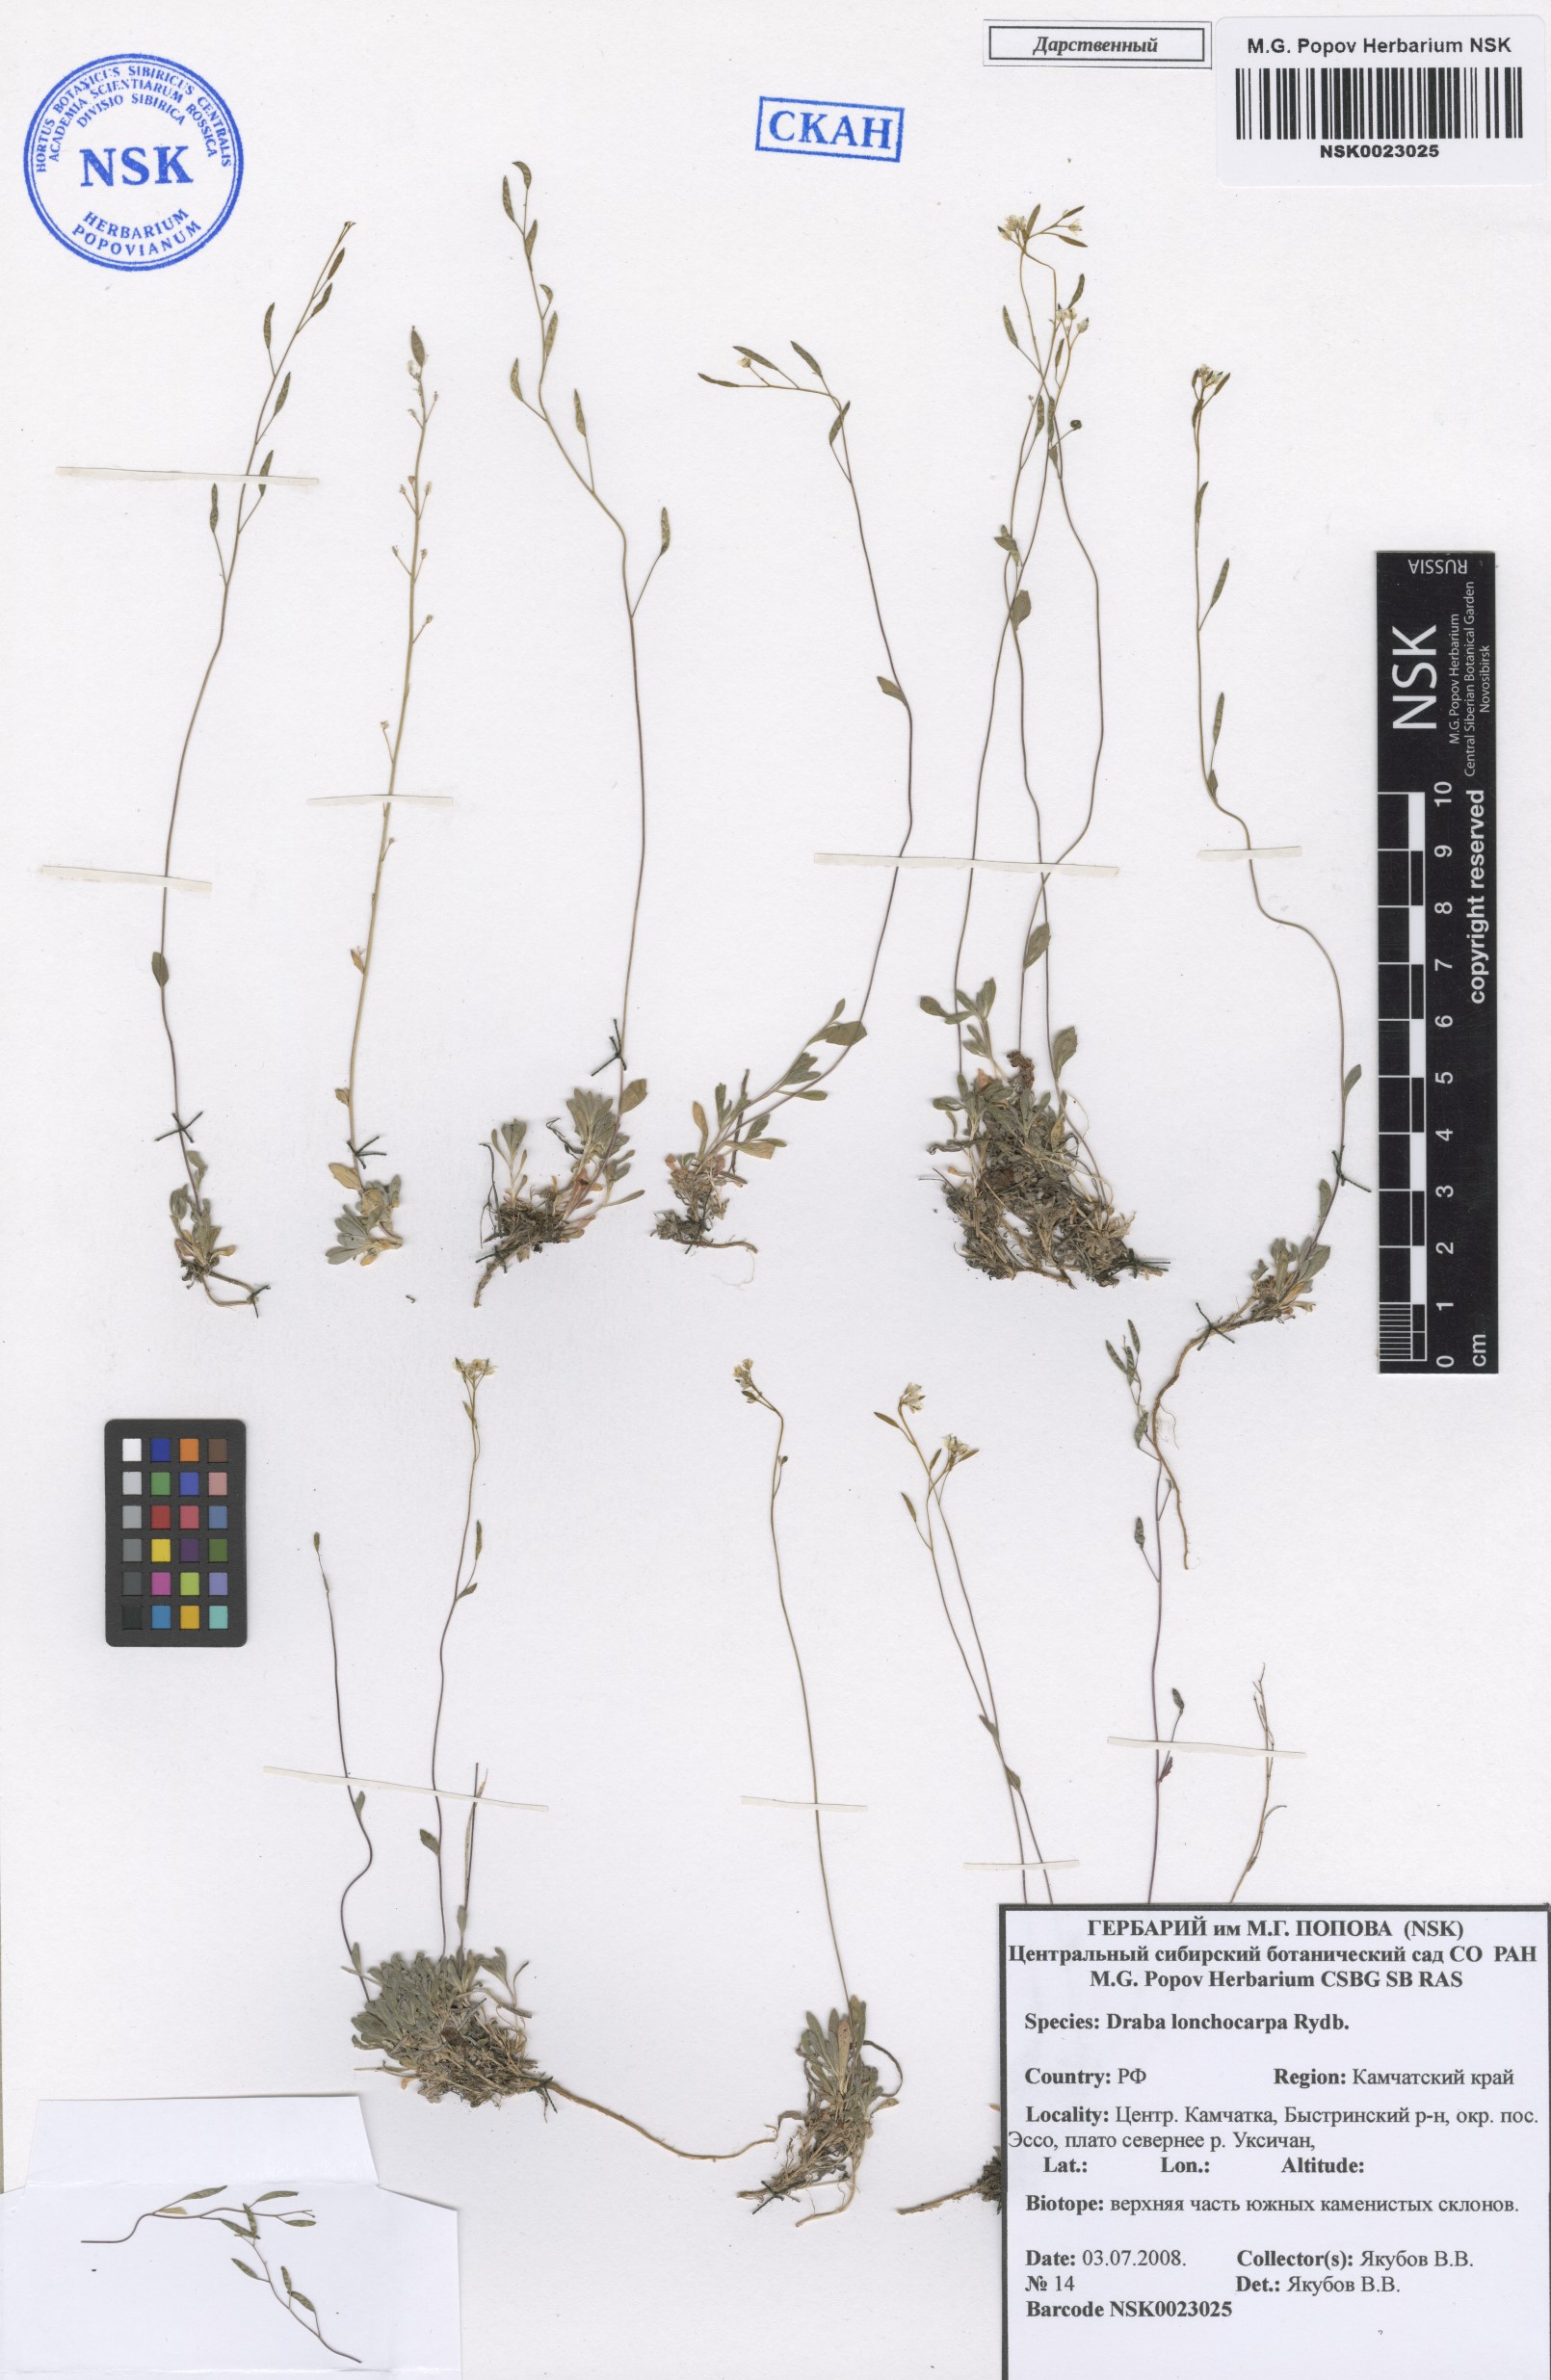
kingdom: Plantae
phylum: Tracheophyta
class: Magnoliopsida
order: Brassicales
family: Brassicaceae
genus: Draba
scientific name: Draba lonchocarpa
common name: Lance-fruit draba
